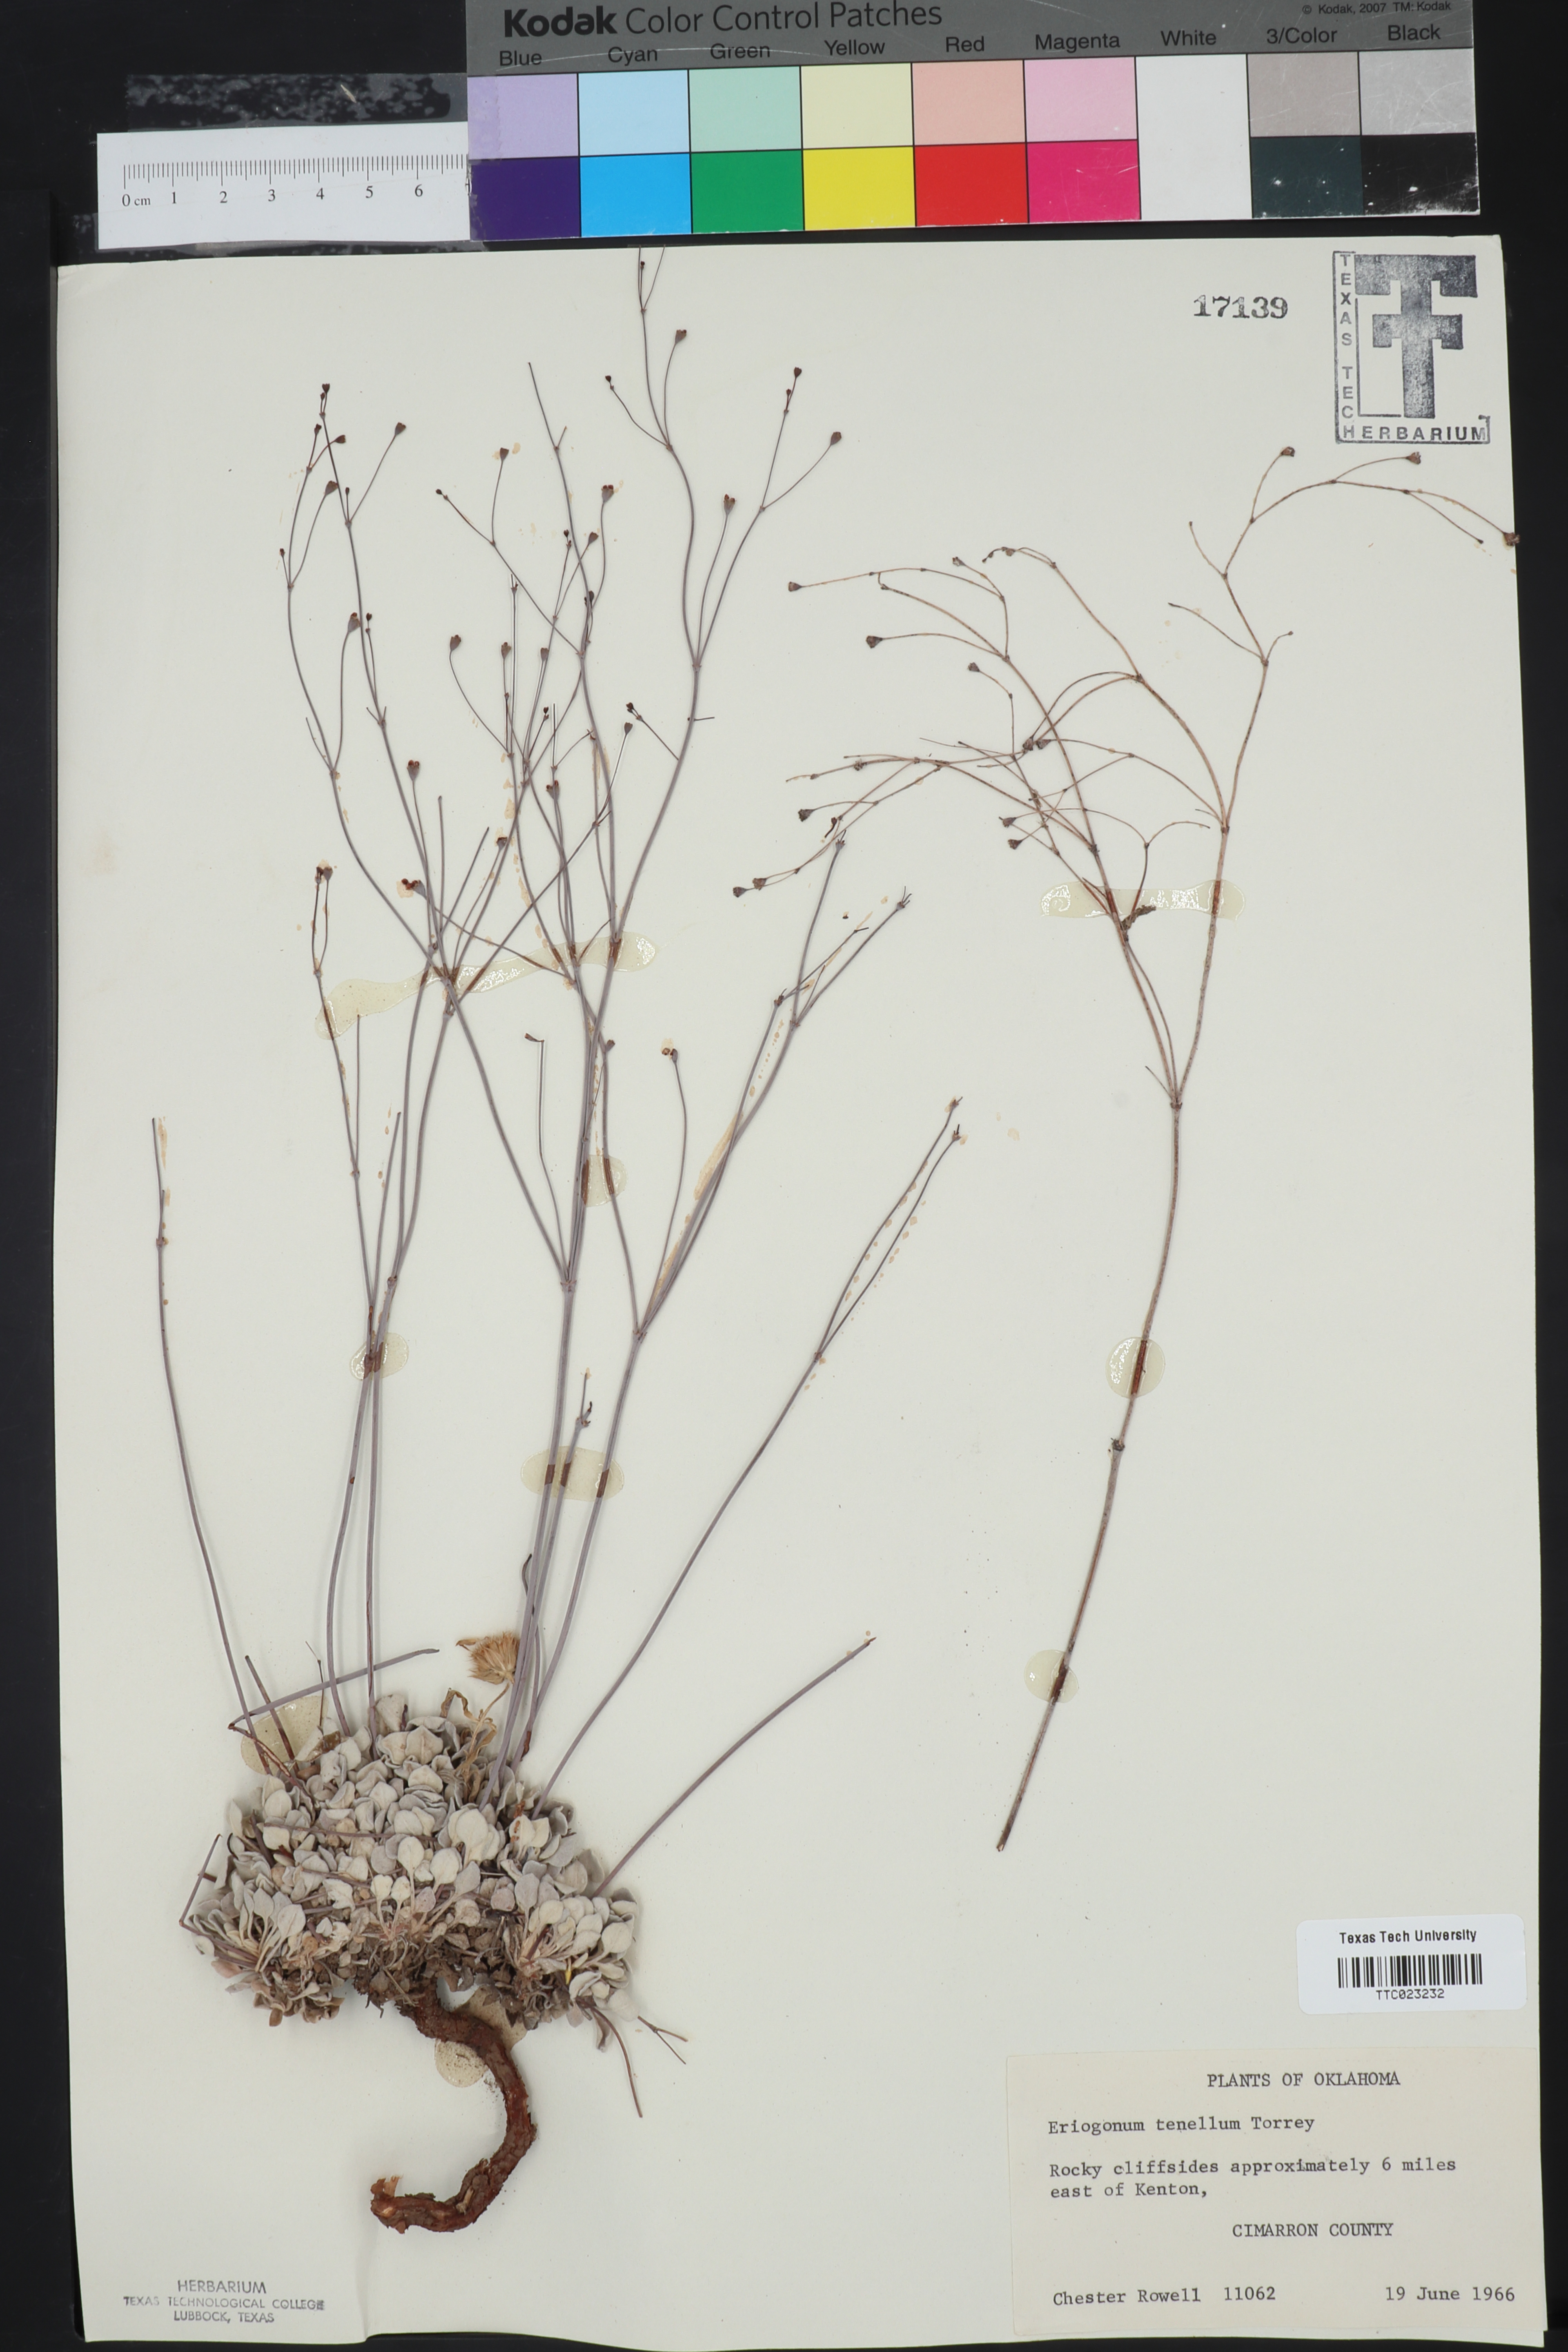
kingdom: Plantae
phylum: Tracheophyta
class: Magnoliopsida
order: Caryophyllales
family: Polygonaceae
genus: Eriogonum
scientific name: Eriogonum tenellum
